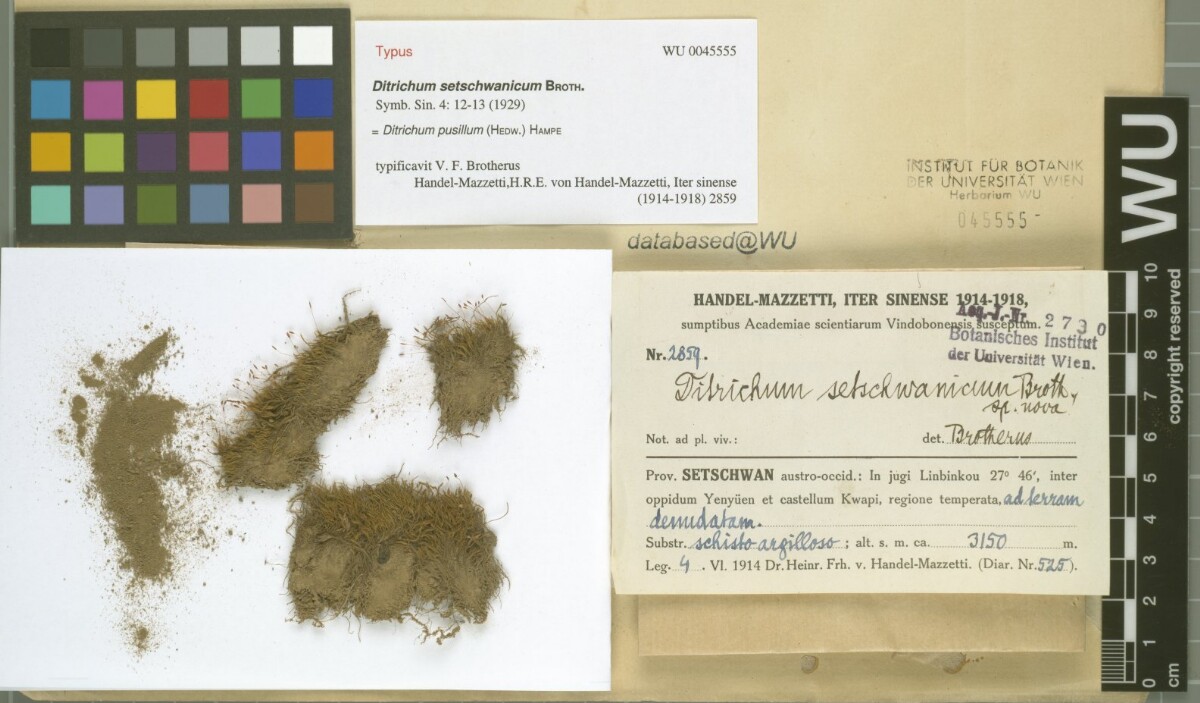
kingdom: Plantae
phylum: Bryophyta
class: Bryopsida
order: Dicranales
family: Ditrichaceae
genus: Ditrichum
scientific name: Ditrichum pusillum
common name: Brown cow-hair moss
